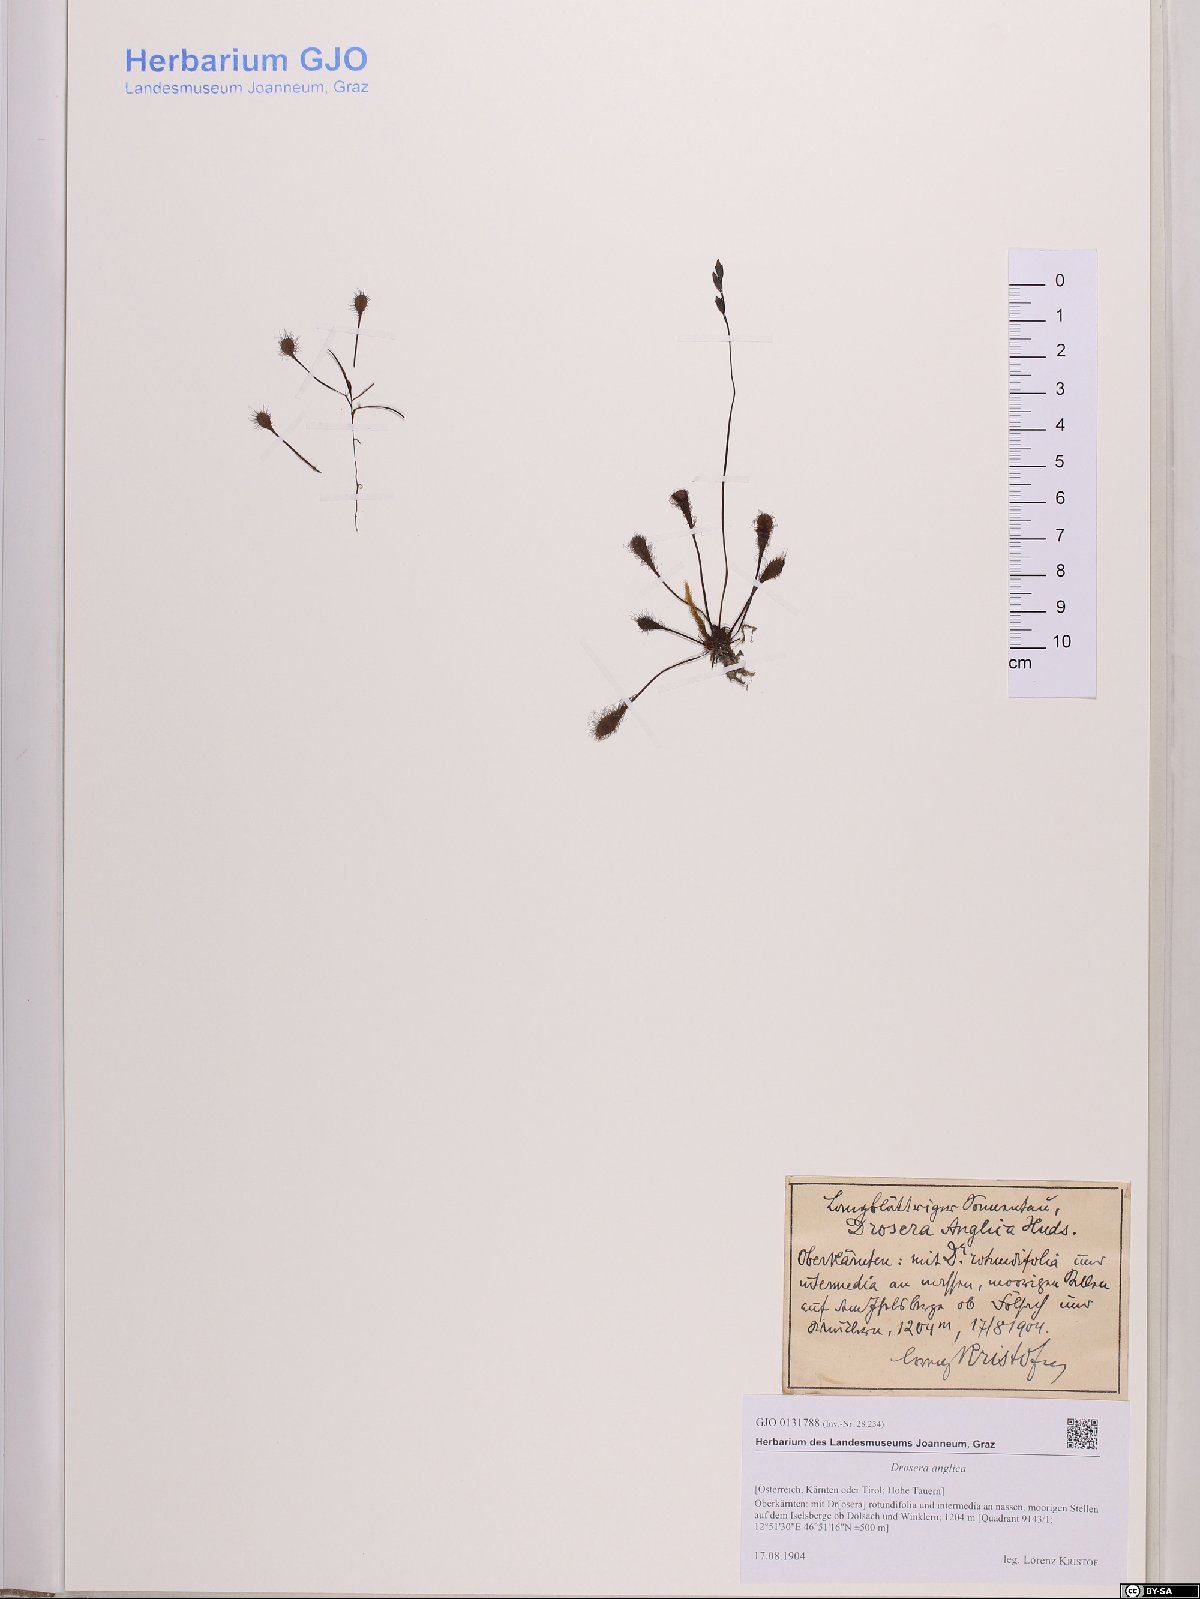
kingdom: Plantae
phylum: Tracheophyta
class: Magnoliopsida
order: Caryophyllales
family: Droseraceae
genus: Drosera
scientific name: Drosera anglica
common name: Great sundew
